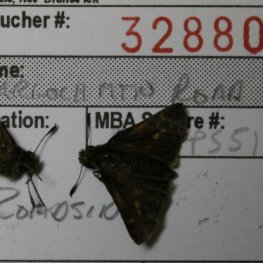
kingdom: Animalia
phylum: Arthropoda
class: Insecta
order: Lepidoptera
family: Hesperiidae
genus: Polites
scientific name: Polites themistocles
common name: Tawny-edged Skipper
